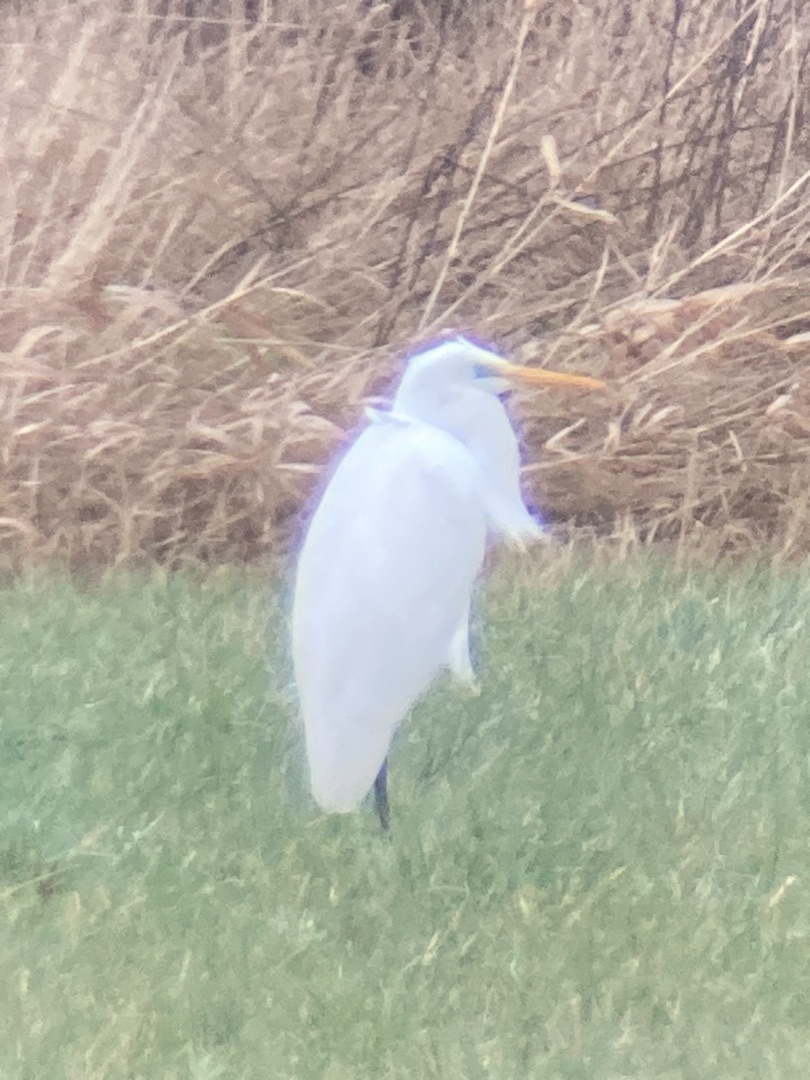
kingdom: Animalia
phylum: Chordata
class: Aves
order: Pelecaniformes
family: Ardeidae
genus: Ardea
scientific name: Ardea alba
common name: Sølvhejre
